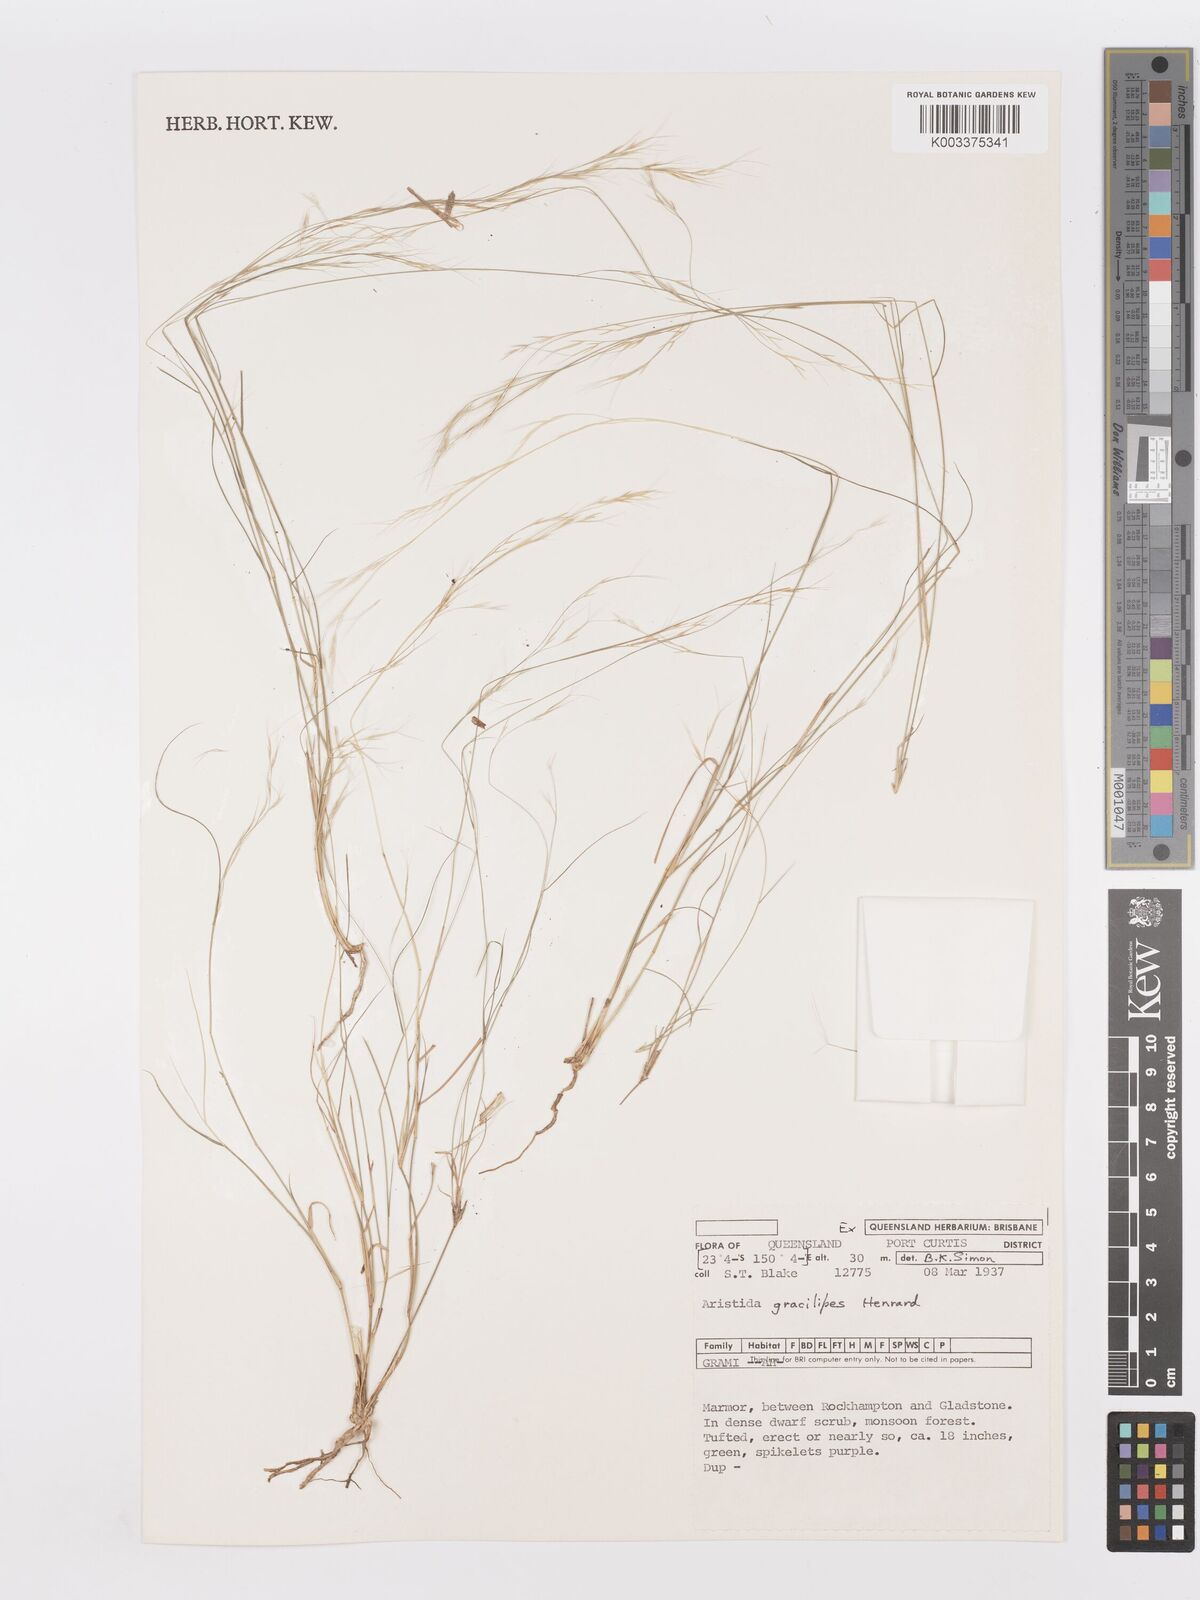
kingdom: Plantae
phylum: Tracheophyta
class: Liliopsida
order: Poales
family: Poaceae
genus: Aristida
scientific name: Aristida gracilipes
